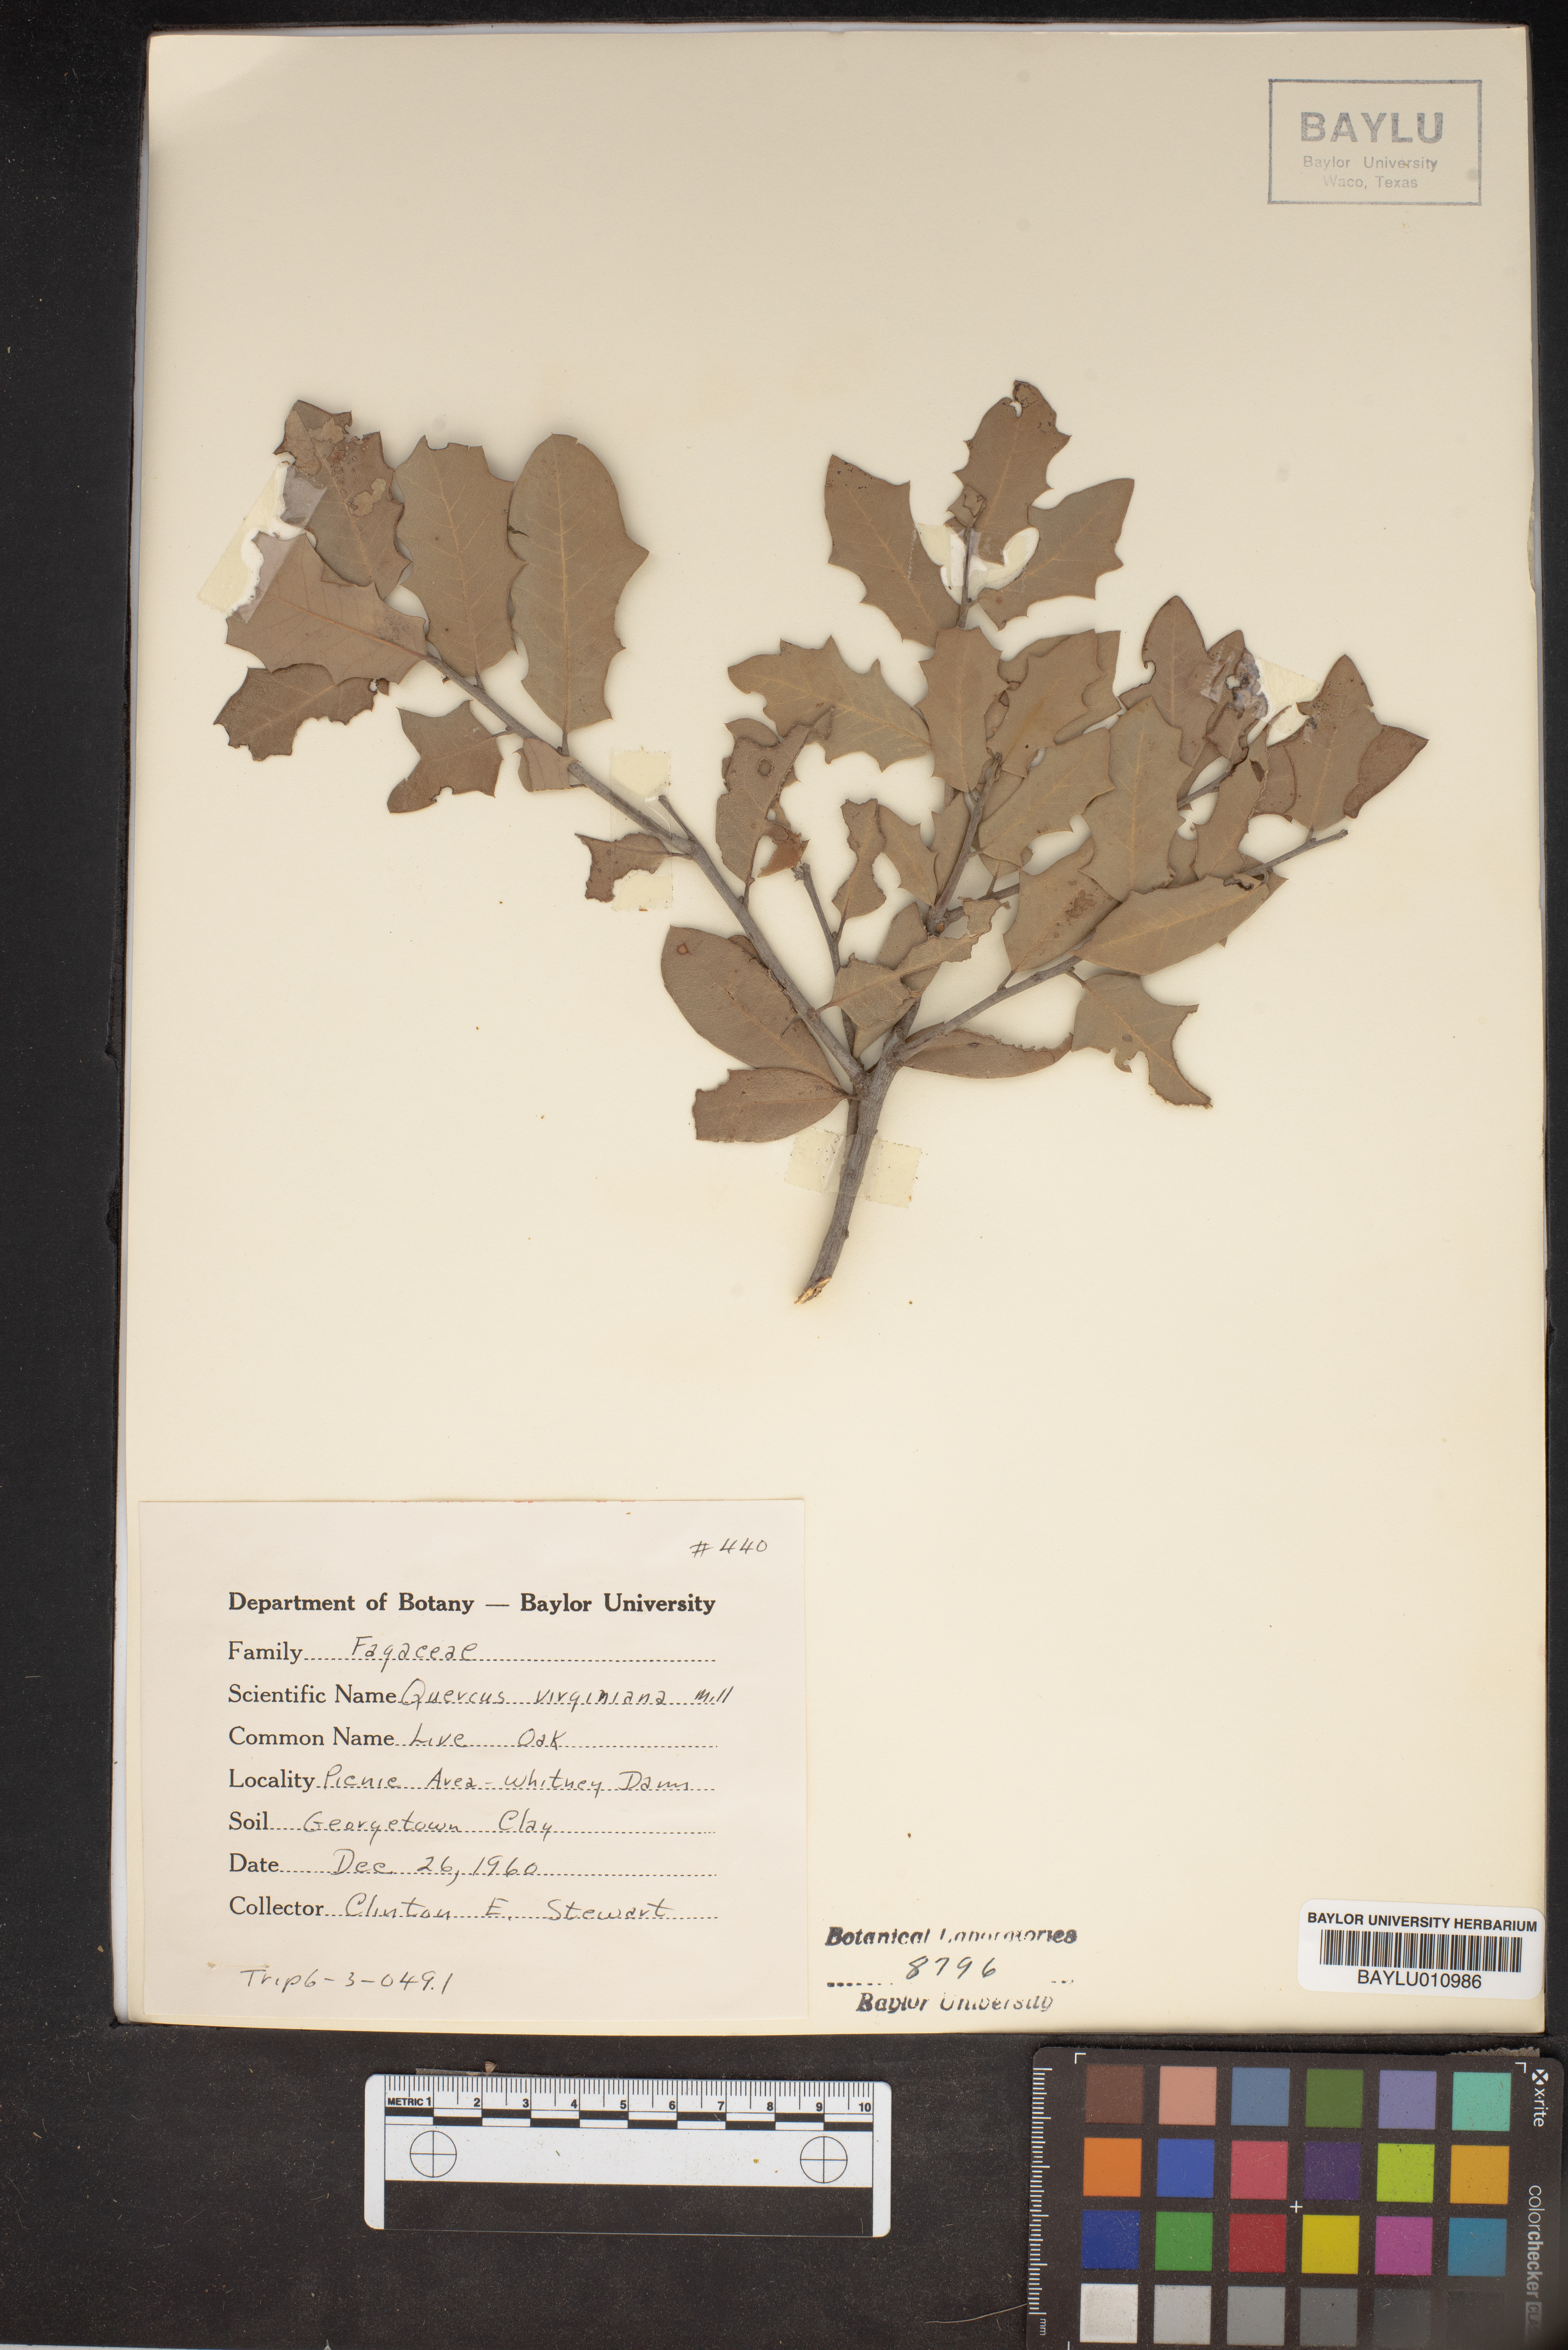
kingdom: Plantae
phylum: Tracheophyta
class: Magnoliopsida
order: Fagales
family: Fagaceae
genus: Quercus
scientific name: Quercus virginiana
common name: Southern live oak
